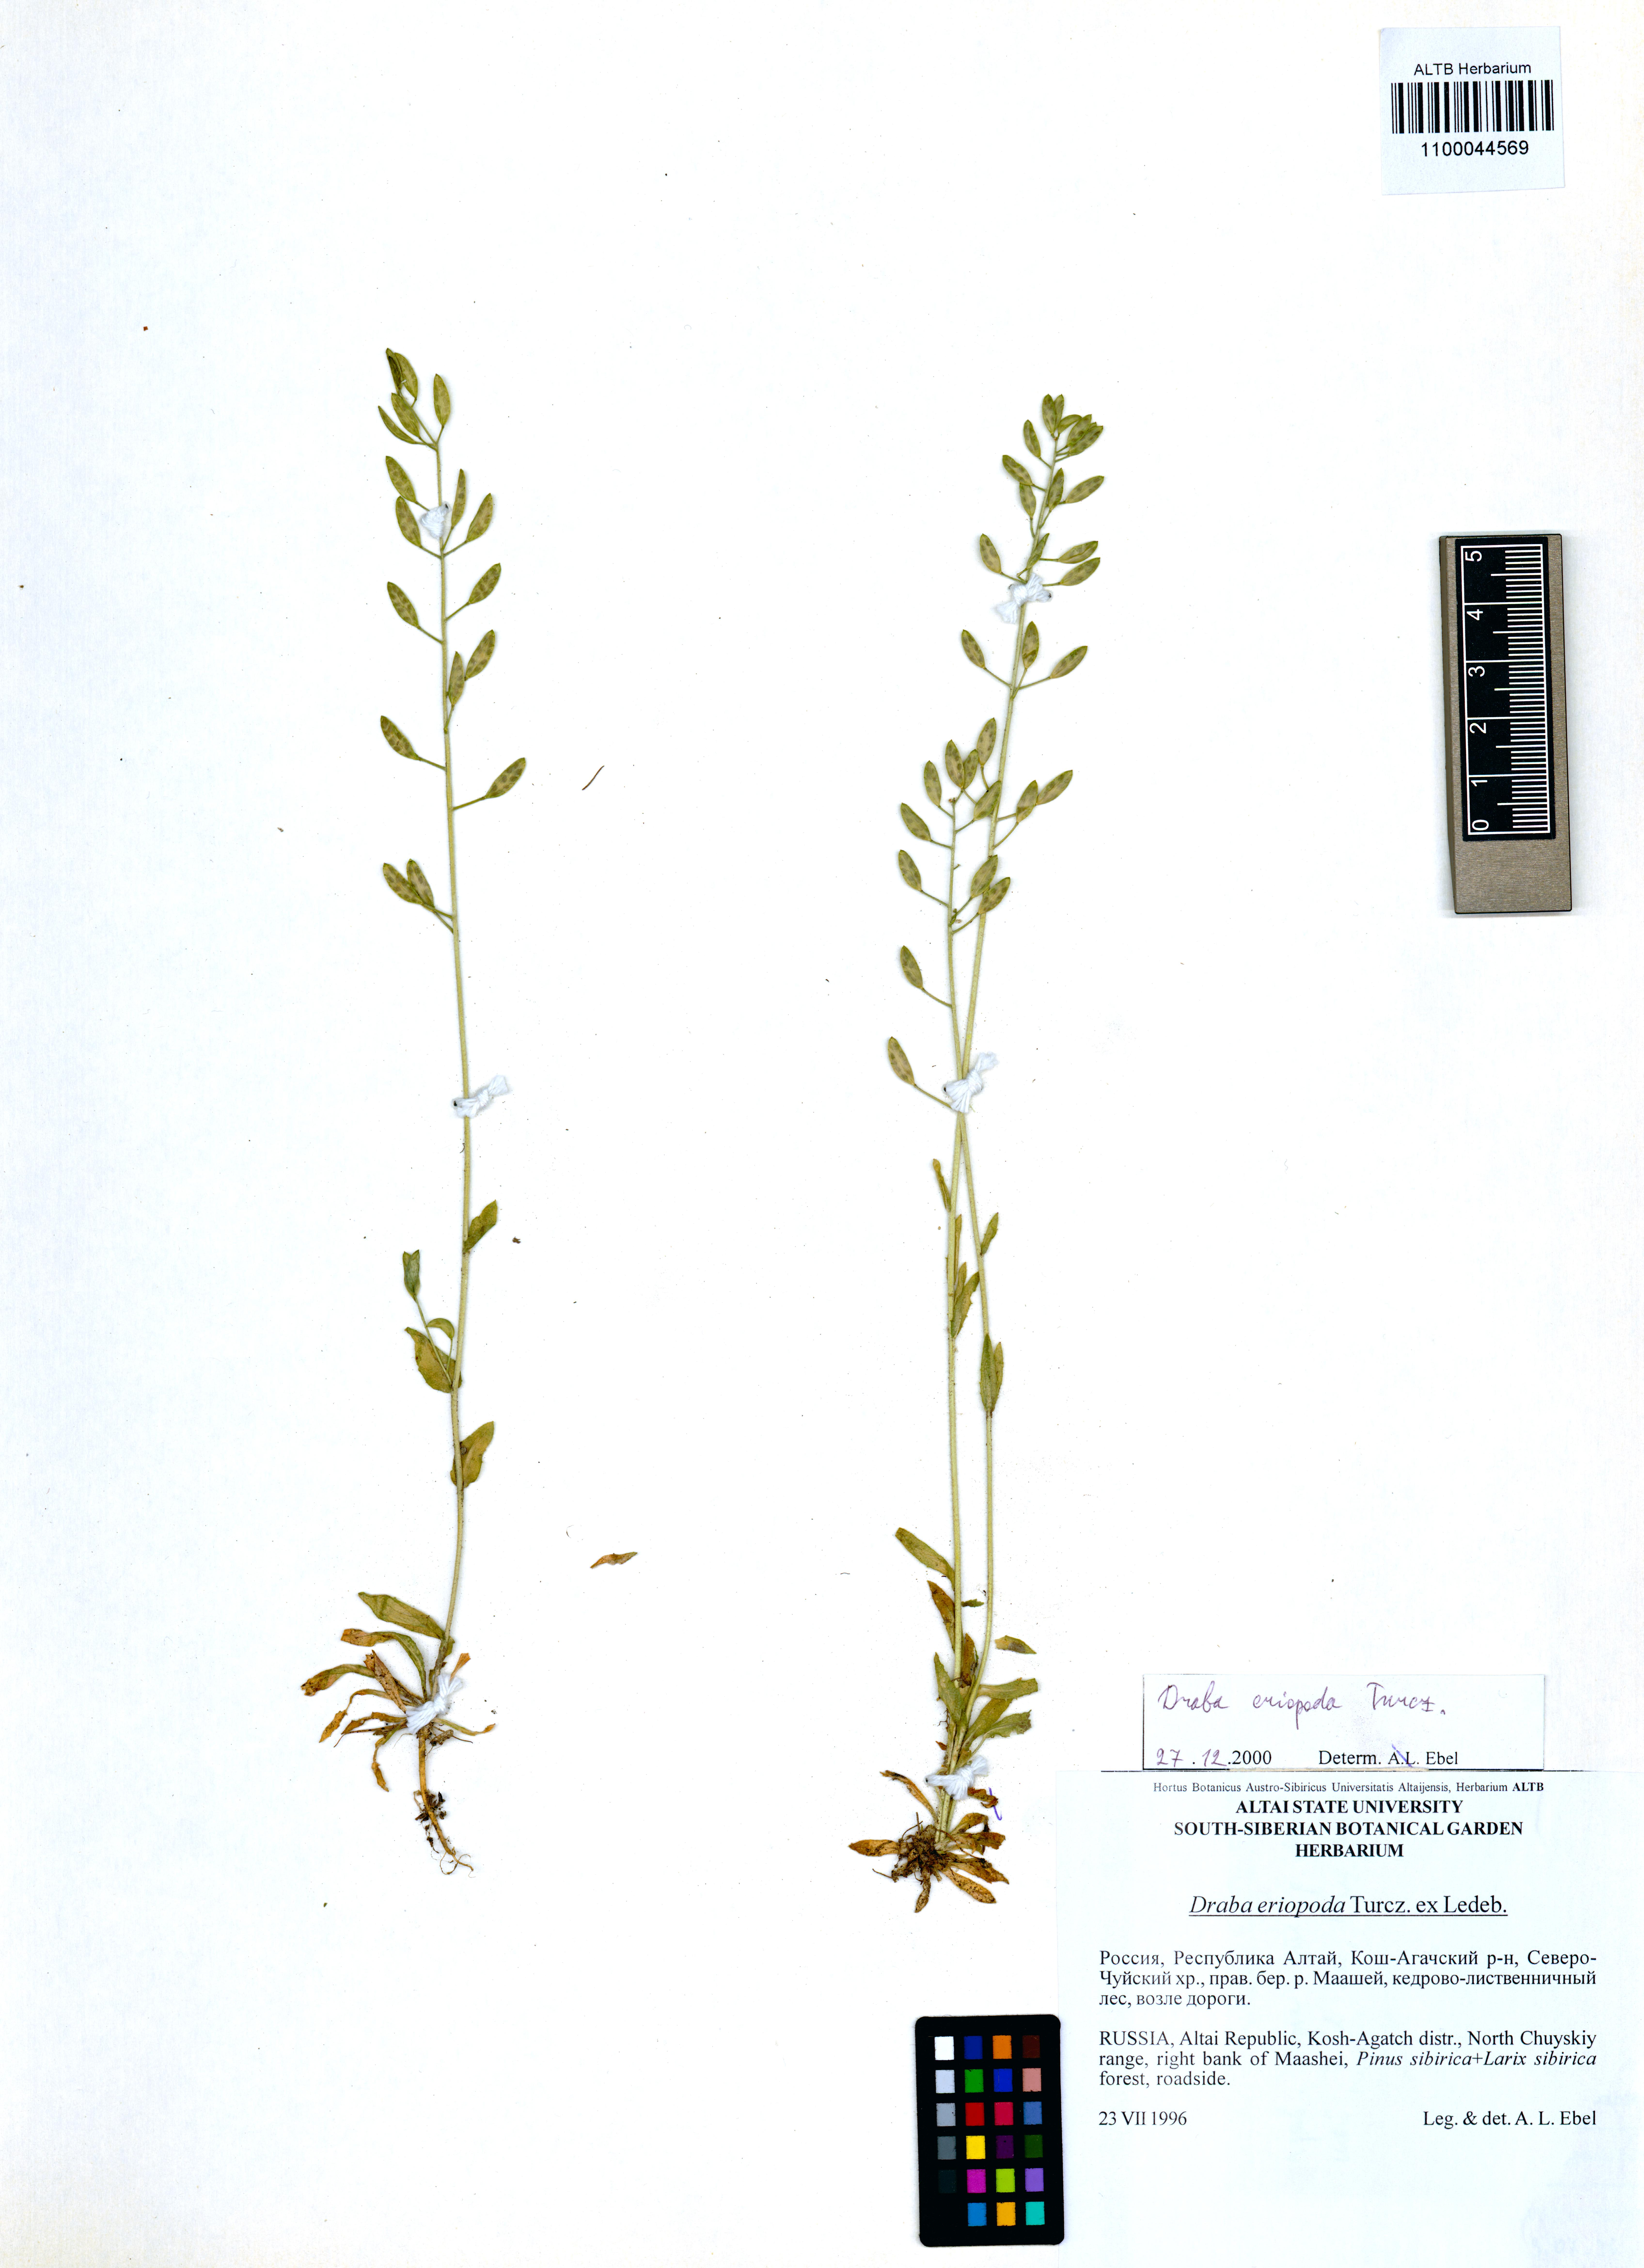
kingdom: Plantae
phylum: Tracheophyta
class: Magnoliopsida
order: Brassicales
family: Brassicaceae
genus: Draba
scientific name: Draba eriopoda
